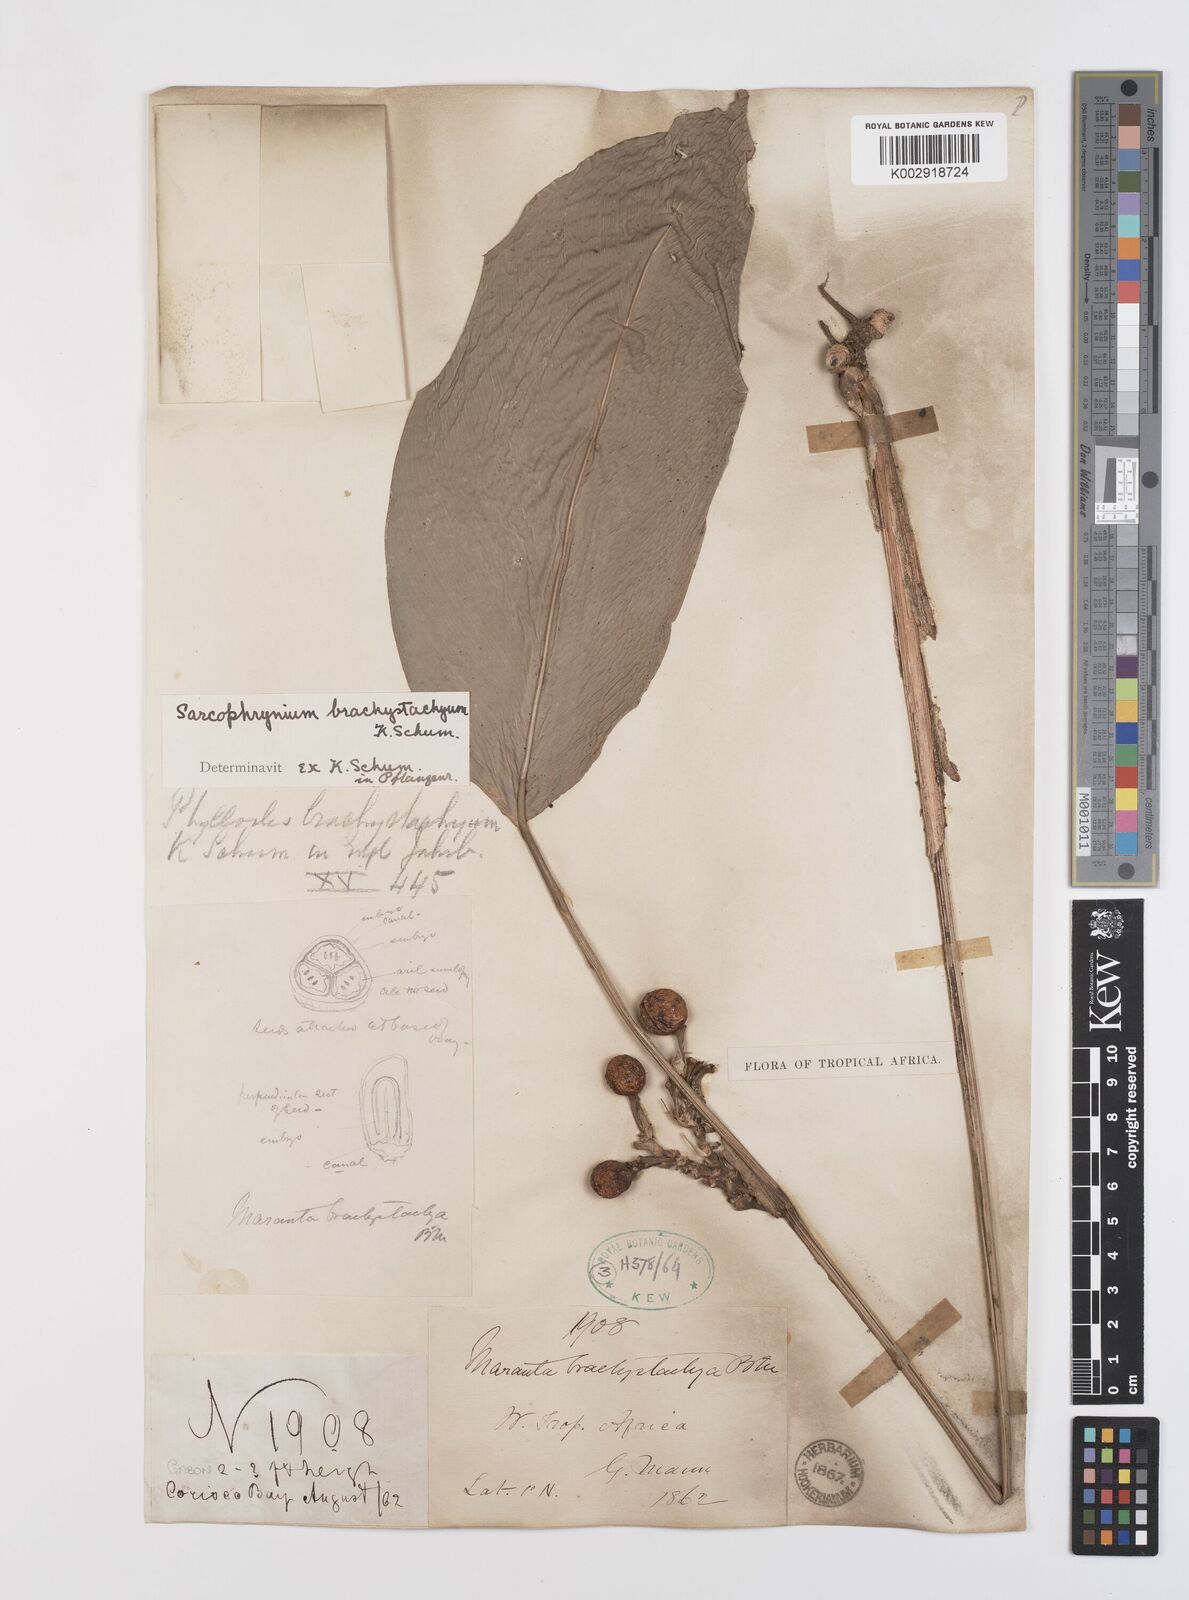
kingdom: Plantae
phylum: Tracheophyta
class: Liliopsida
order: Zingiberales
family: Marantaceae
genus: Sarcophrynium
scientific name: Sarcophrynium brachystachyum
